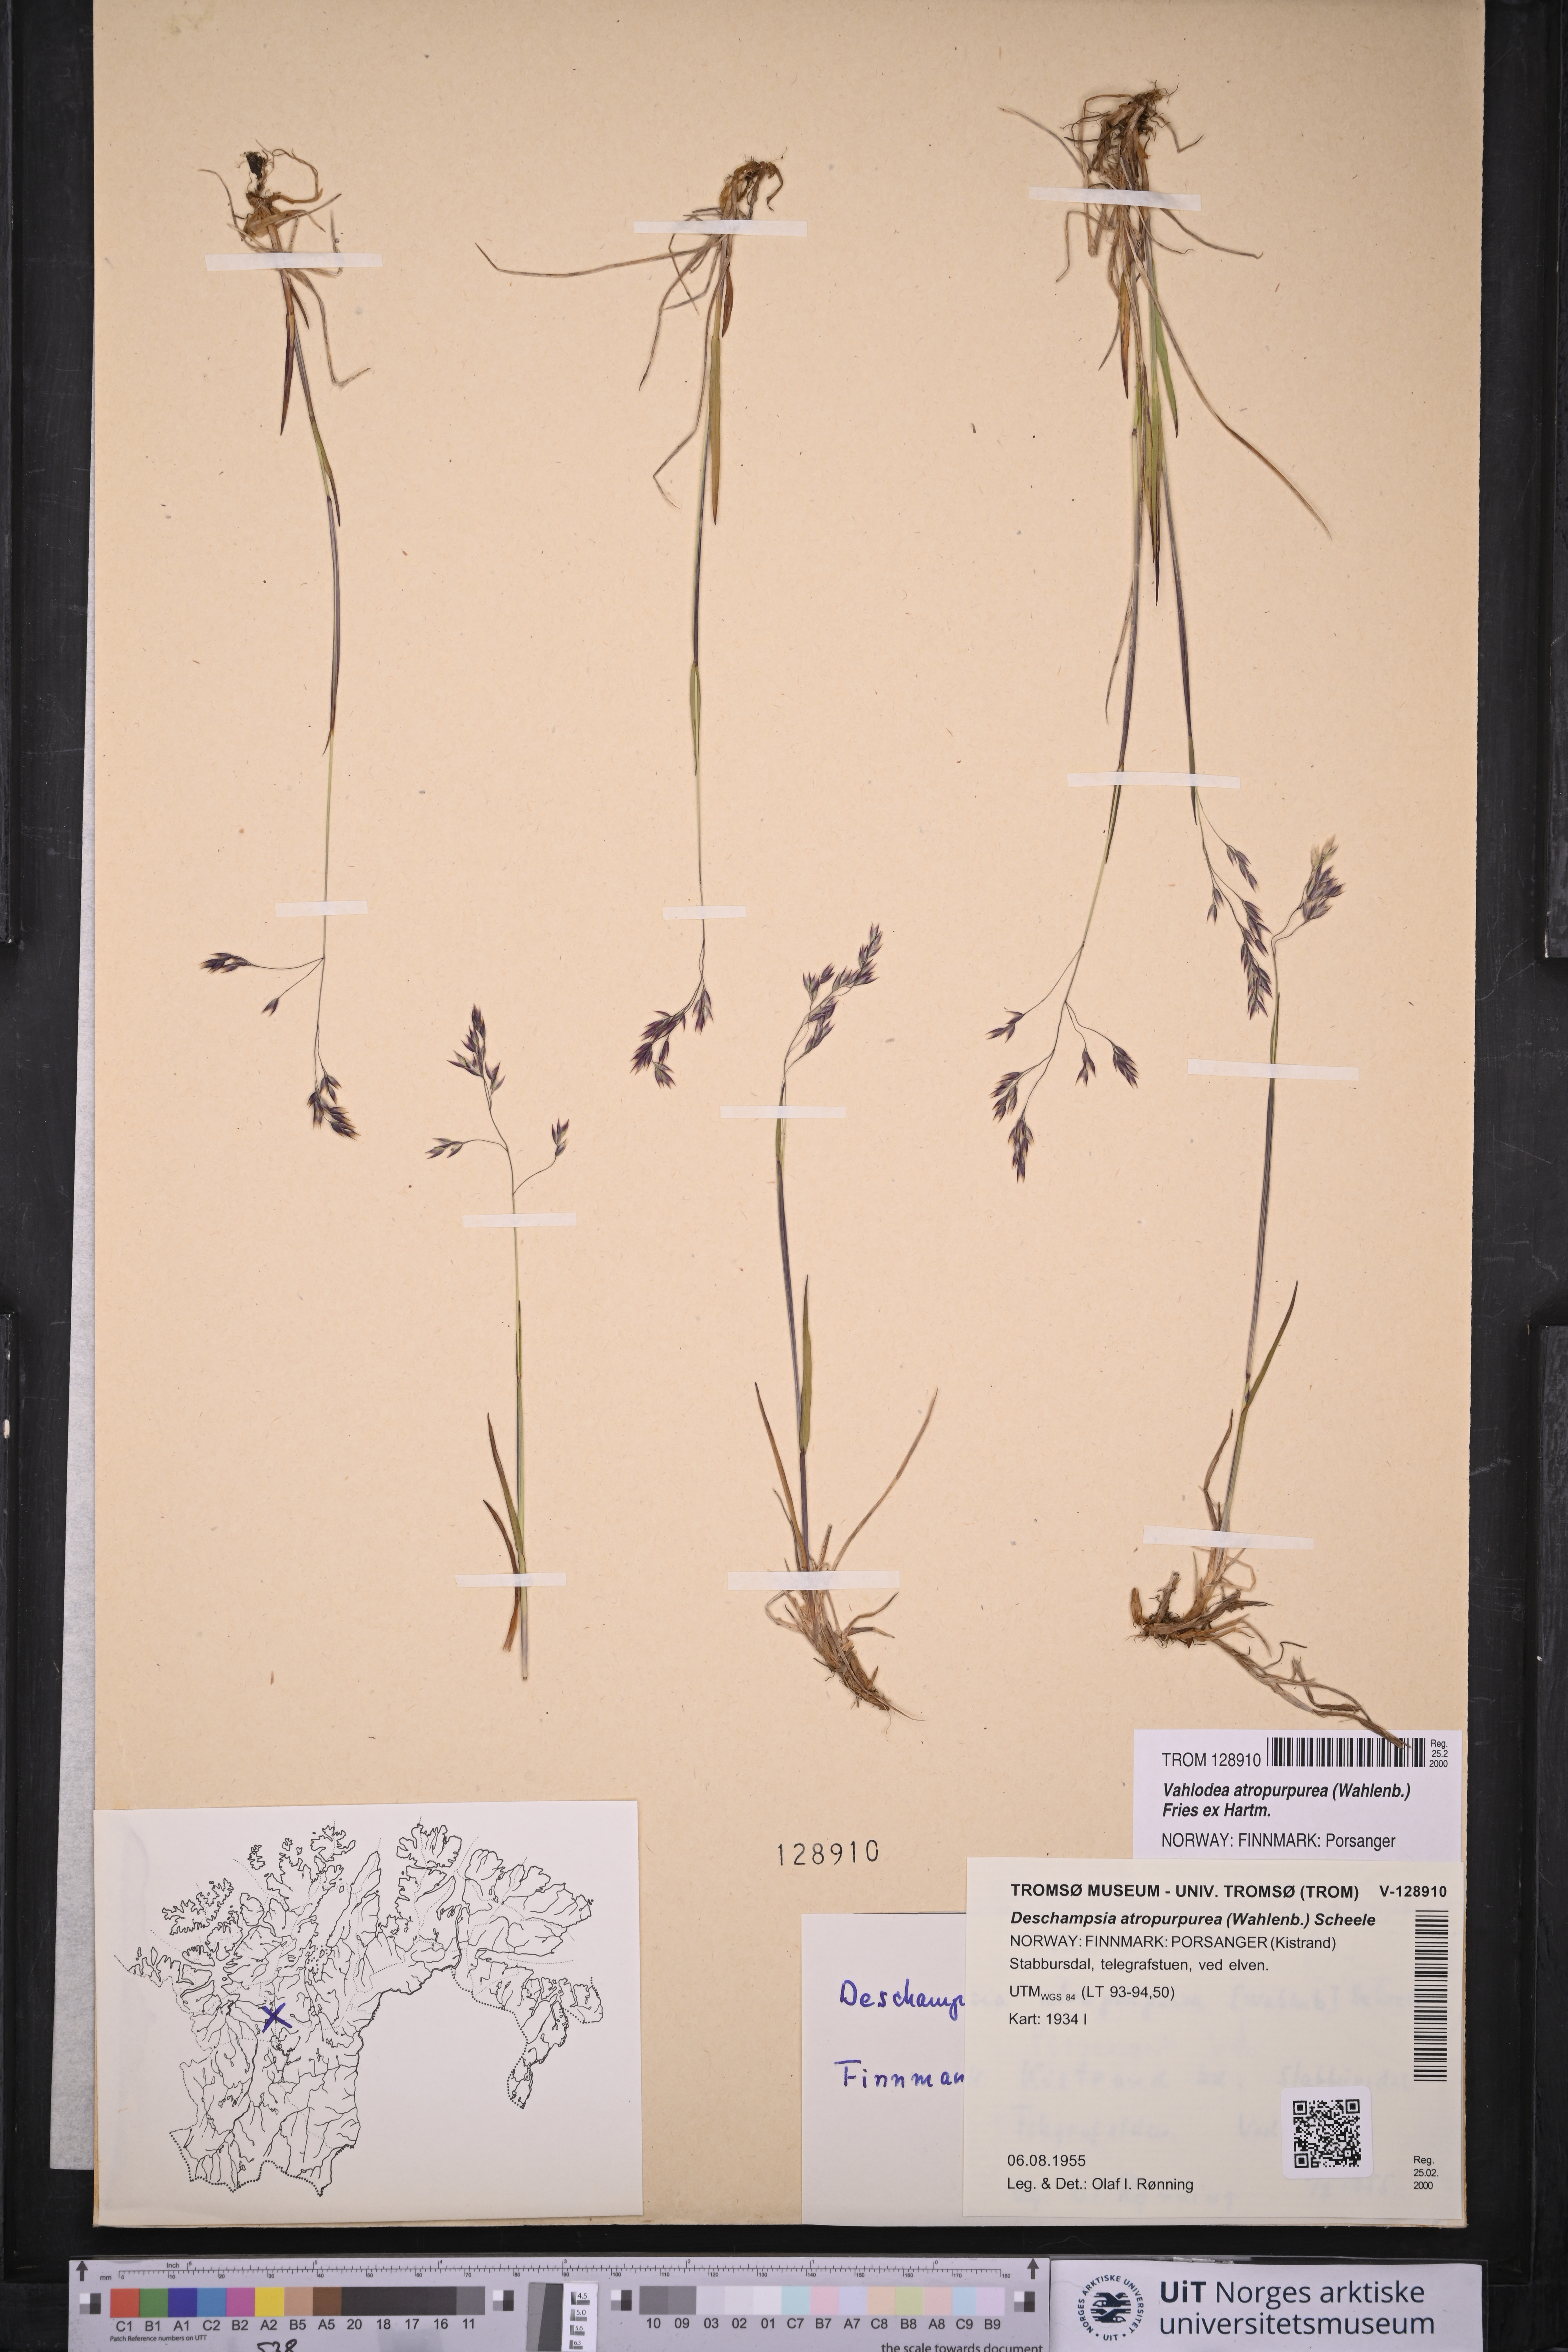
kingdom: Plantae
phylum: Tracheophyta
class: Liliopsida
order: Poales
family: Poaceae
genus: Vahlodea
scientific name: Vahlodea atropurpurea
